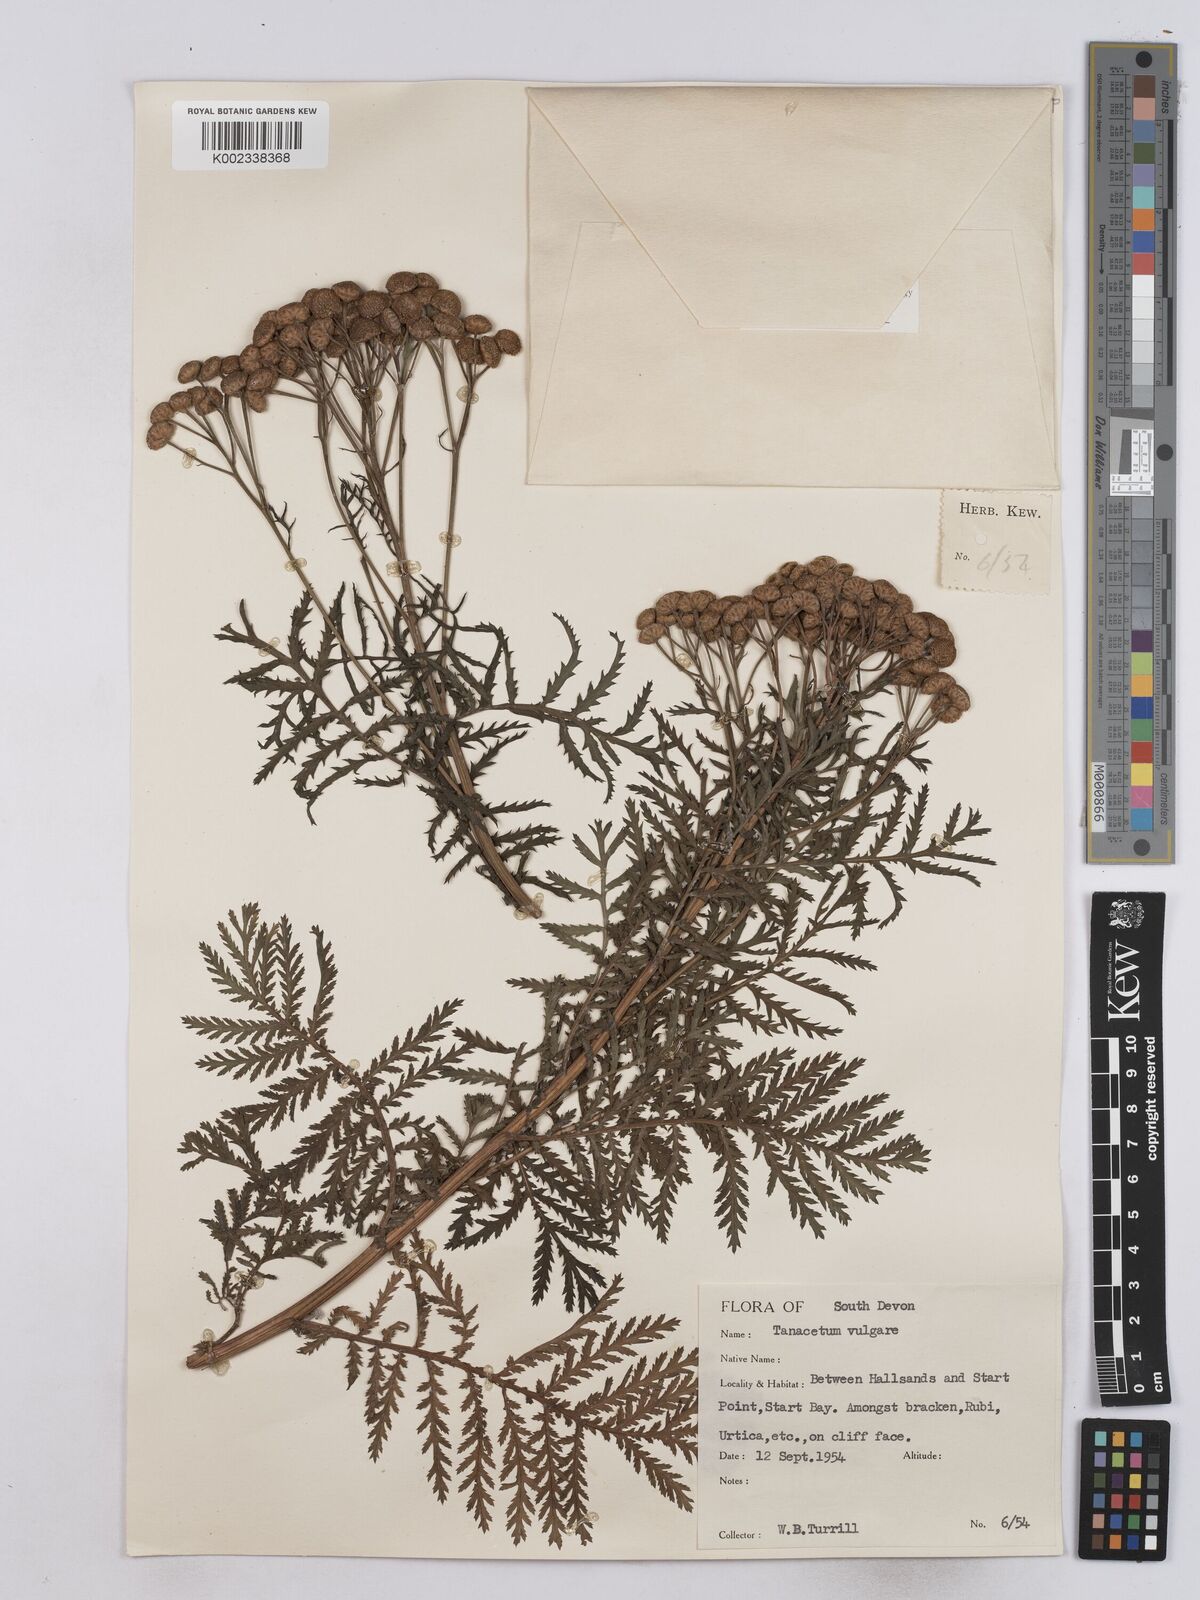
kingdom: Plantae
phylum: Tracheophyta
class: Magnoliopsida
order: Asterales
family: Asteraceae
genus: Tanacetum
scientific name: Tanacetum vulgare
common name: Common tansy
